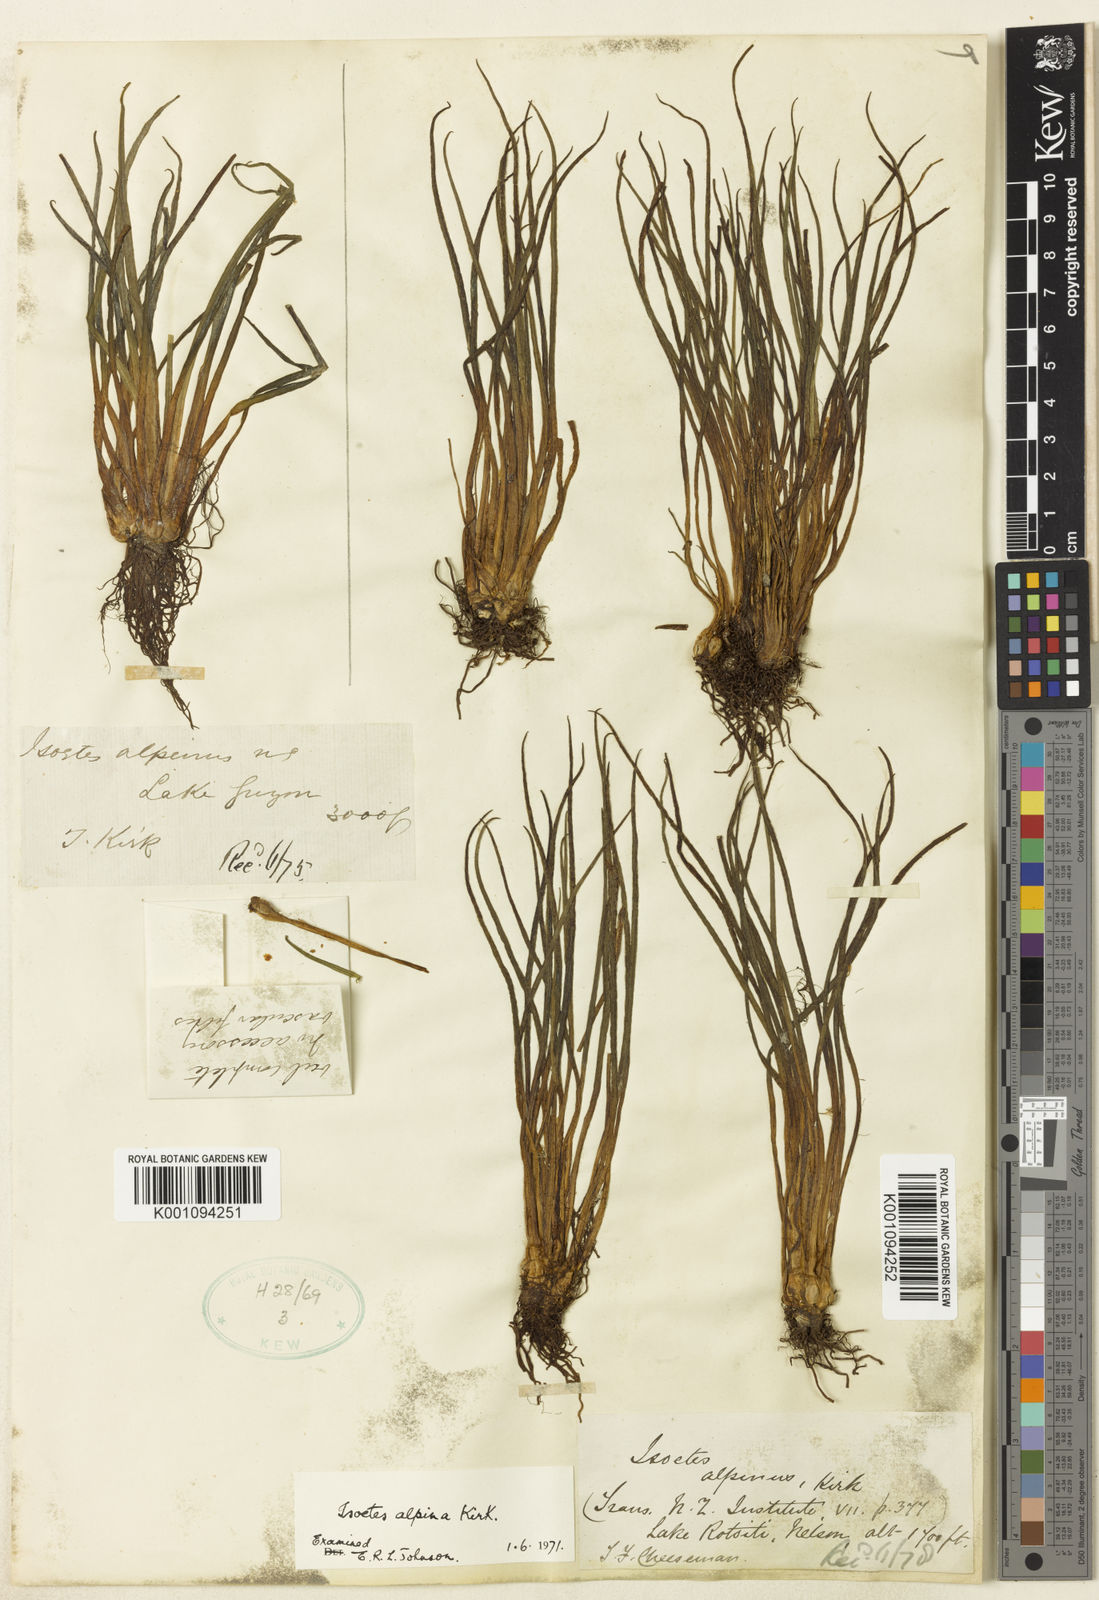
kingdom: Plantae
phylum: Tracheophyta
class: Lycopodiopsida
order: Isoetales
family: Isoetaceae
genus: Isoetes
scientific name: Isoetes alpina
